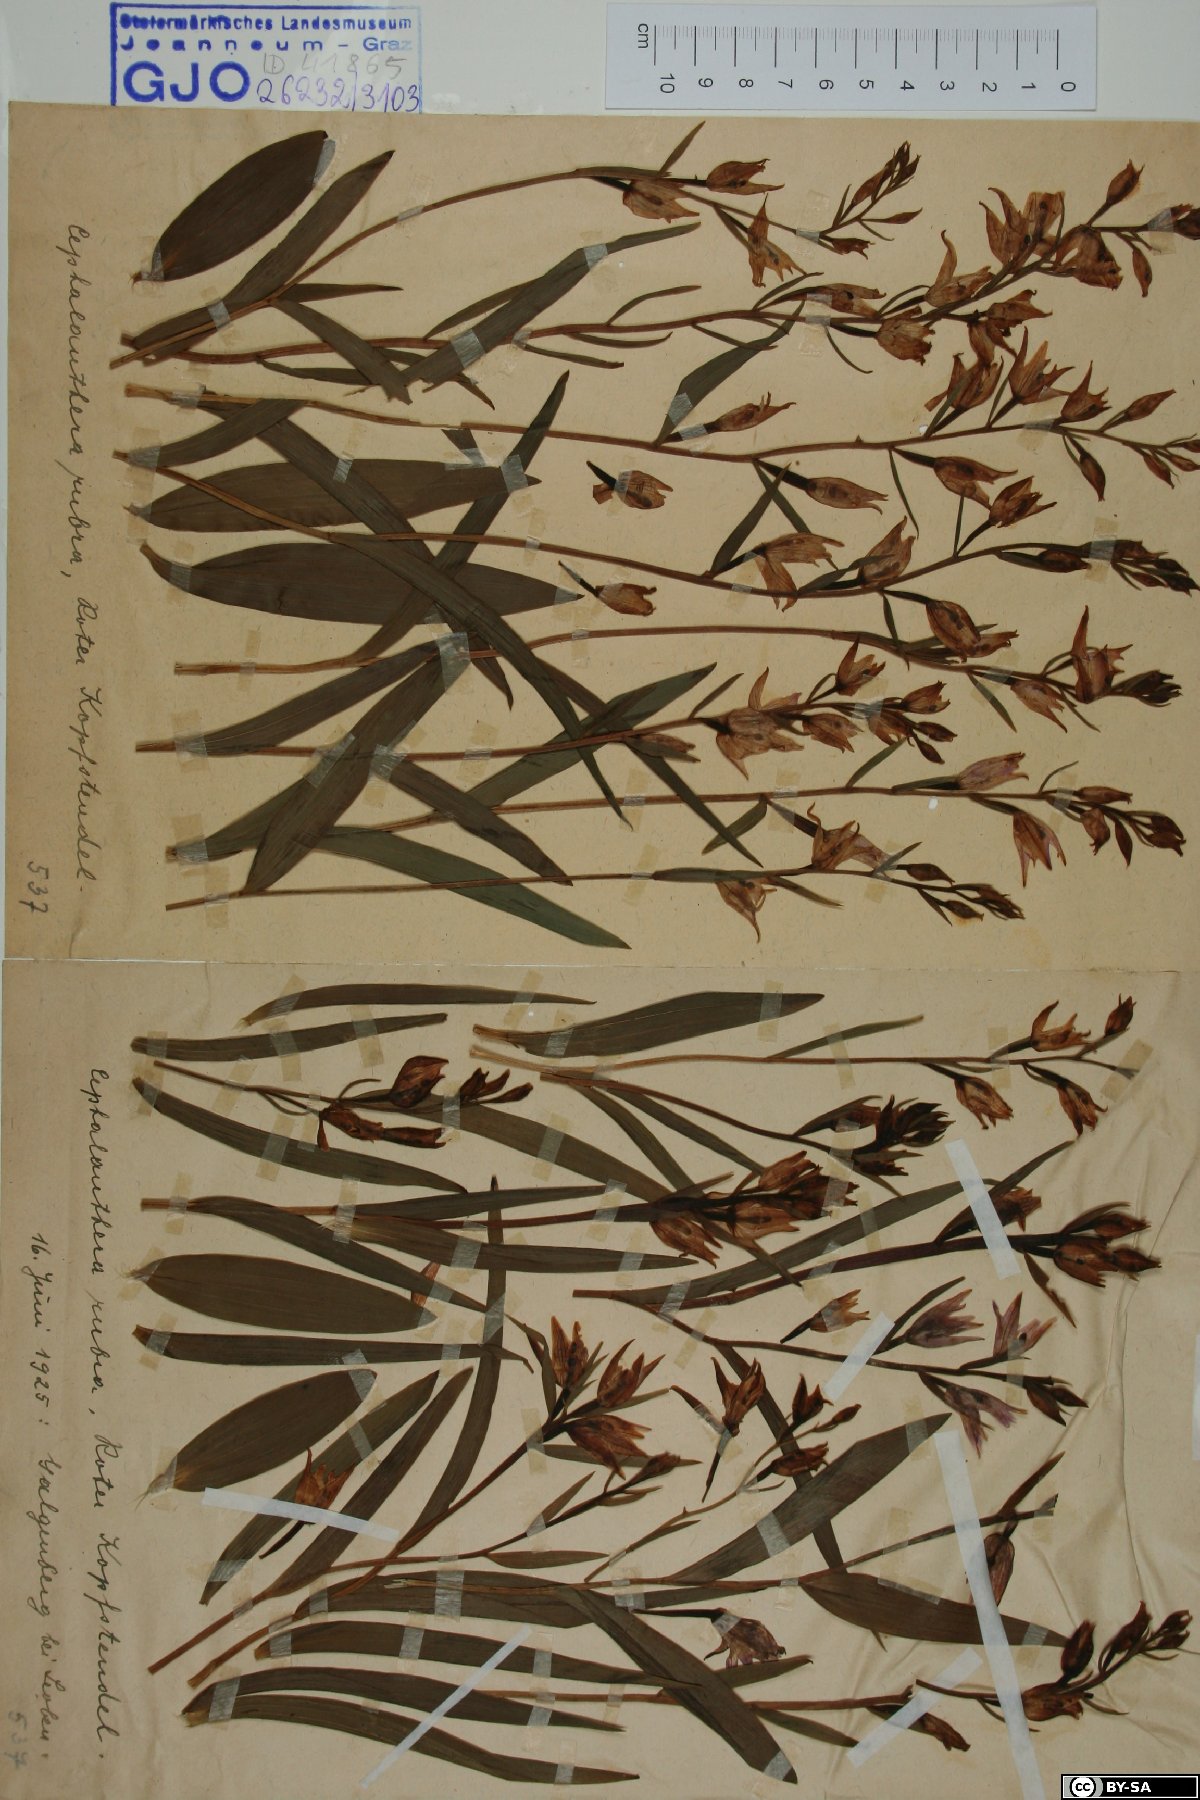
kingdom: Plantae
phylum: Tracheophyta
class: Liliopsida
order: Asparagales
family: Orchidaceae
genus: Cephalanthera
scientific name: Cephalanthera rubra
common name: Red helleborine
